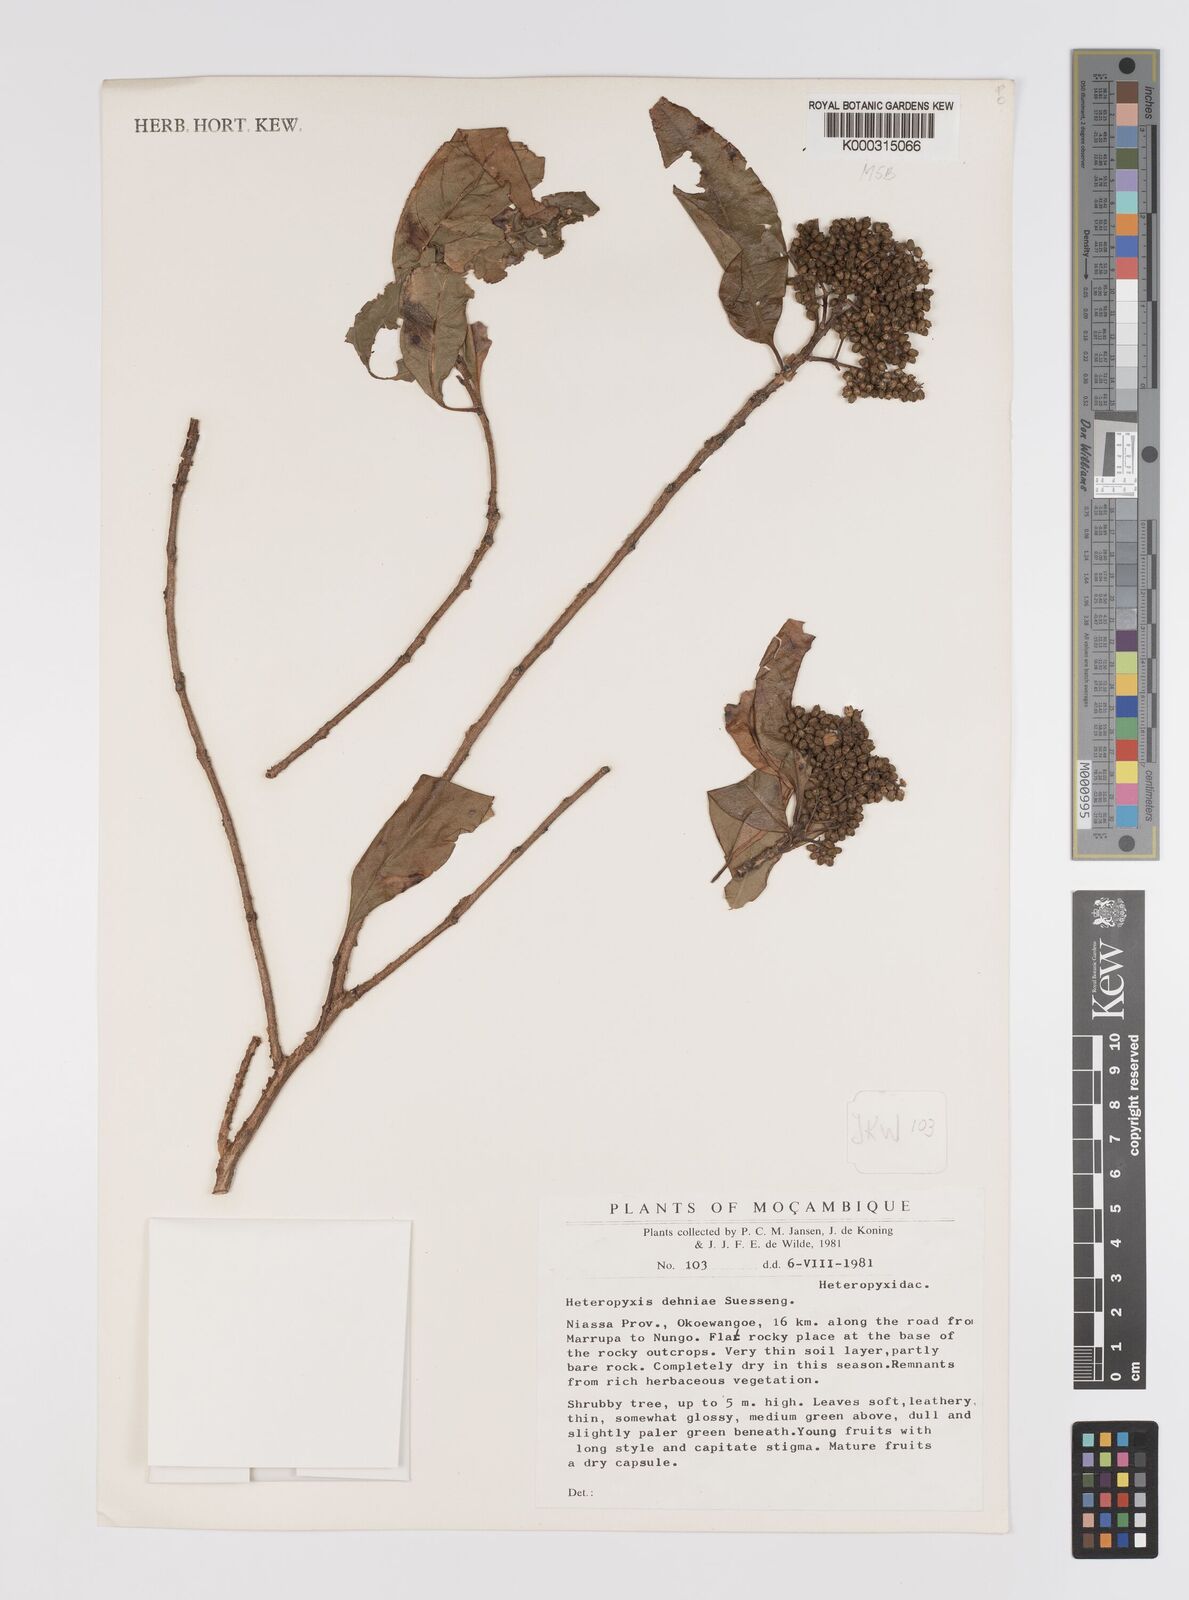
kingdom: Plantae
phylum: Tracheophyta
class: Magnoliopsida
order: Myrtales
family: Myrtaceae
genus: Heteropyxis
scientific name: Heteropyxis dehniae
